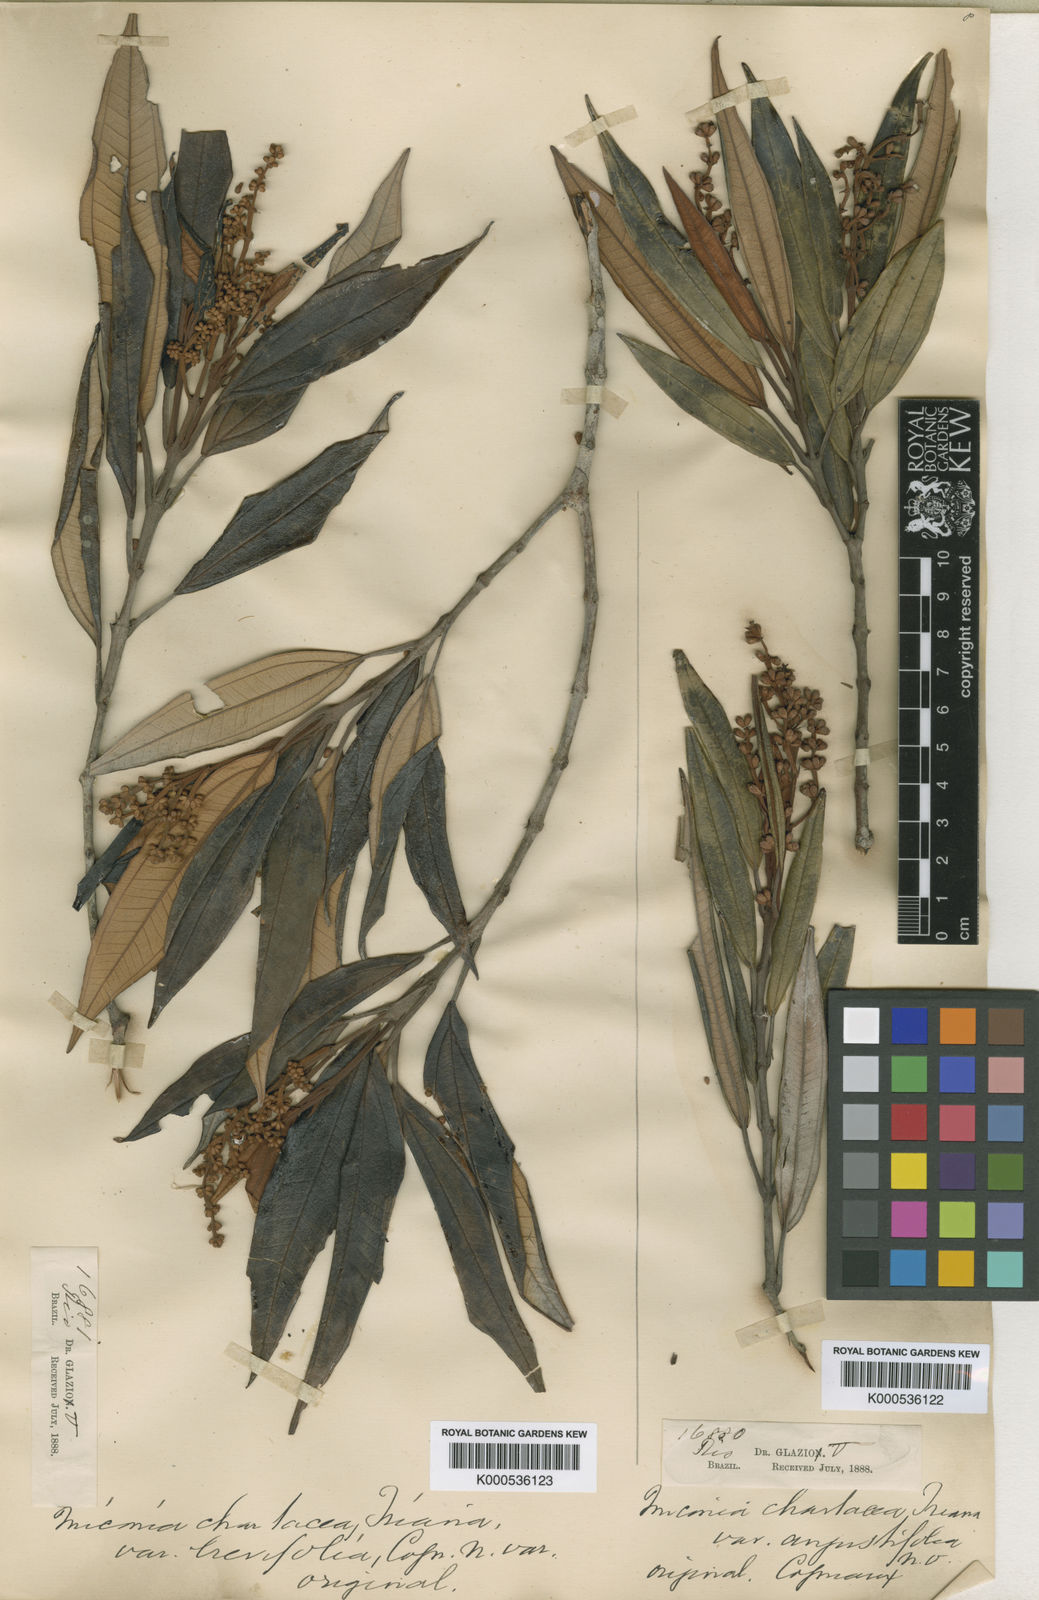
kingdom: Plantae
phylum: Tracheophyta
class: Magnoliopsida
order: Myrtales
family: Melastomataceae
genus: Miconia
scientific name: Miconia chartacea
